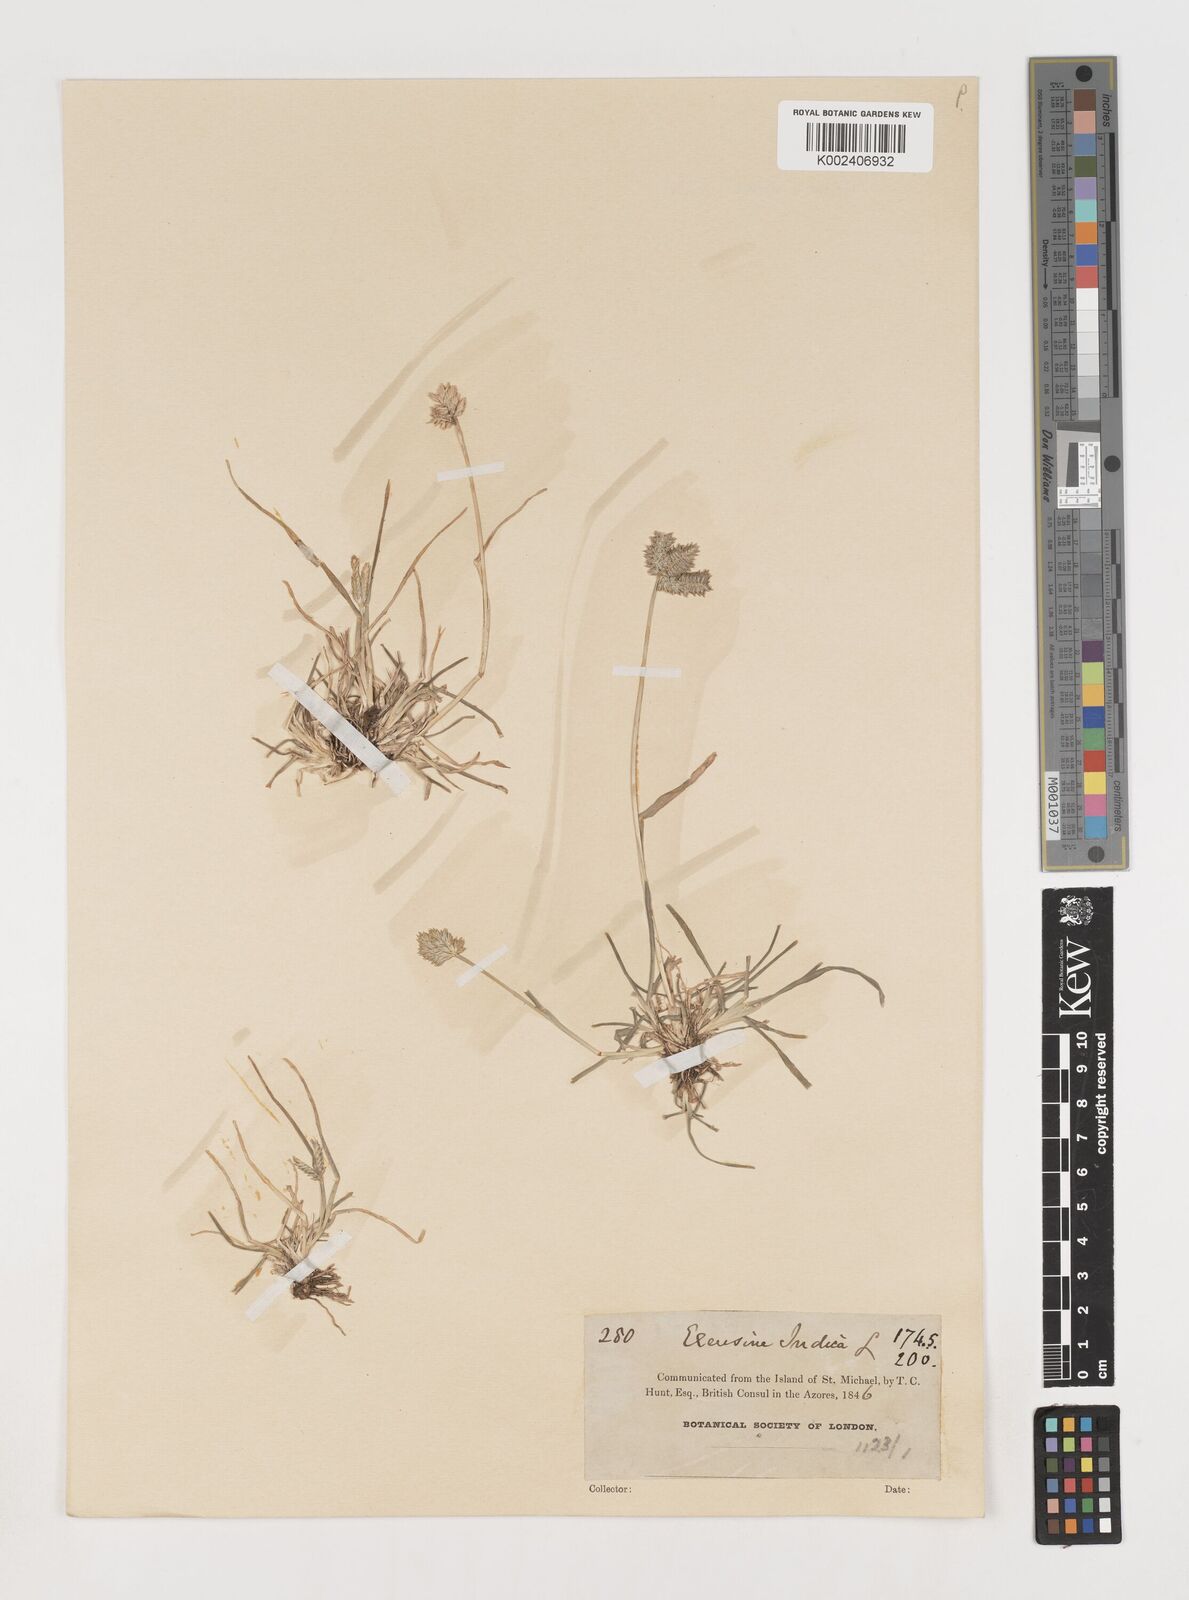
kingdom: Plantae
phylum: Tracheophyta
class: Liliopsida
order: Poales
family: Poaceae
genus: Eleusine
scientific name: Eleusine tristachya
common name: American yard-grass
